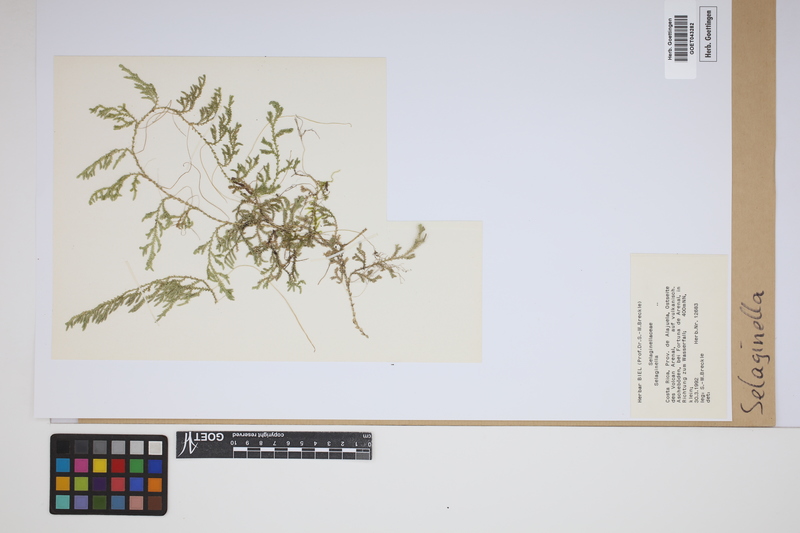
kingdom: Plantae
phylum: Tracheophyta
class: Lycopodiopsida
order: Selaginellales
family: Selaginellaceae
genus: Selaginella
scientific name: Selaginella
